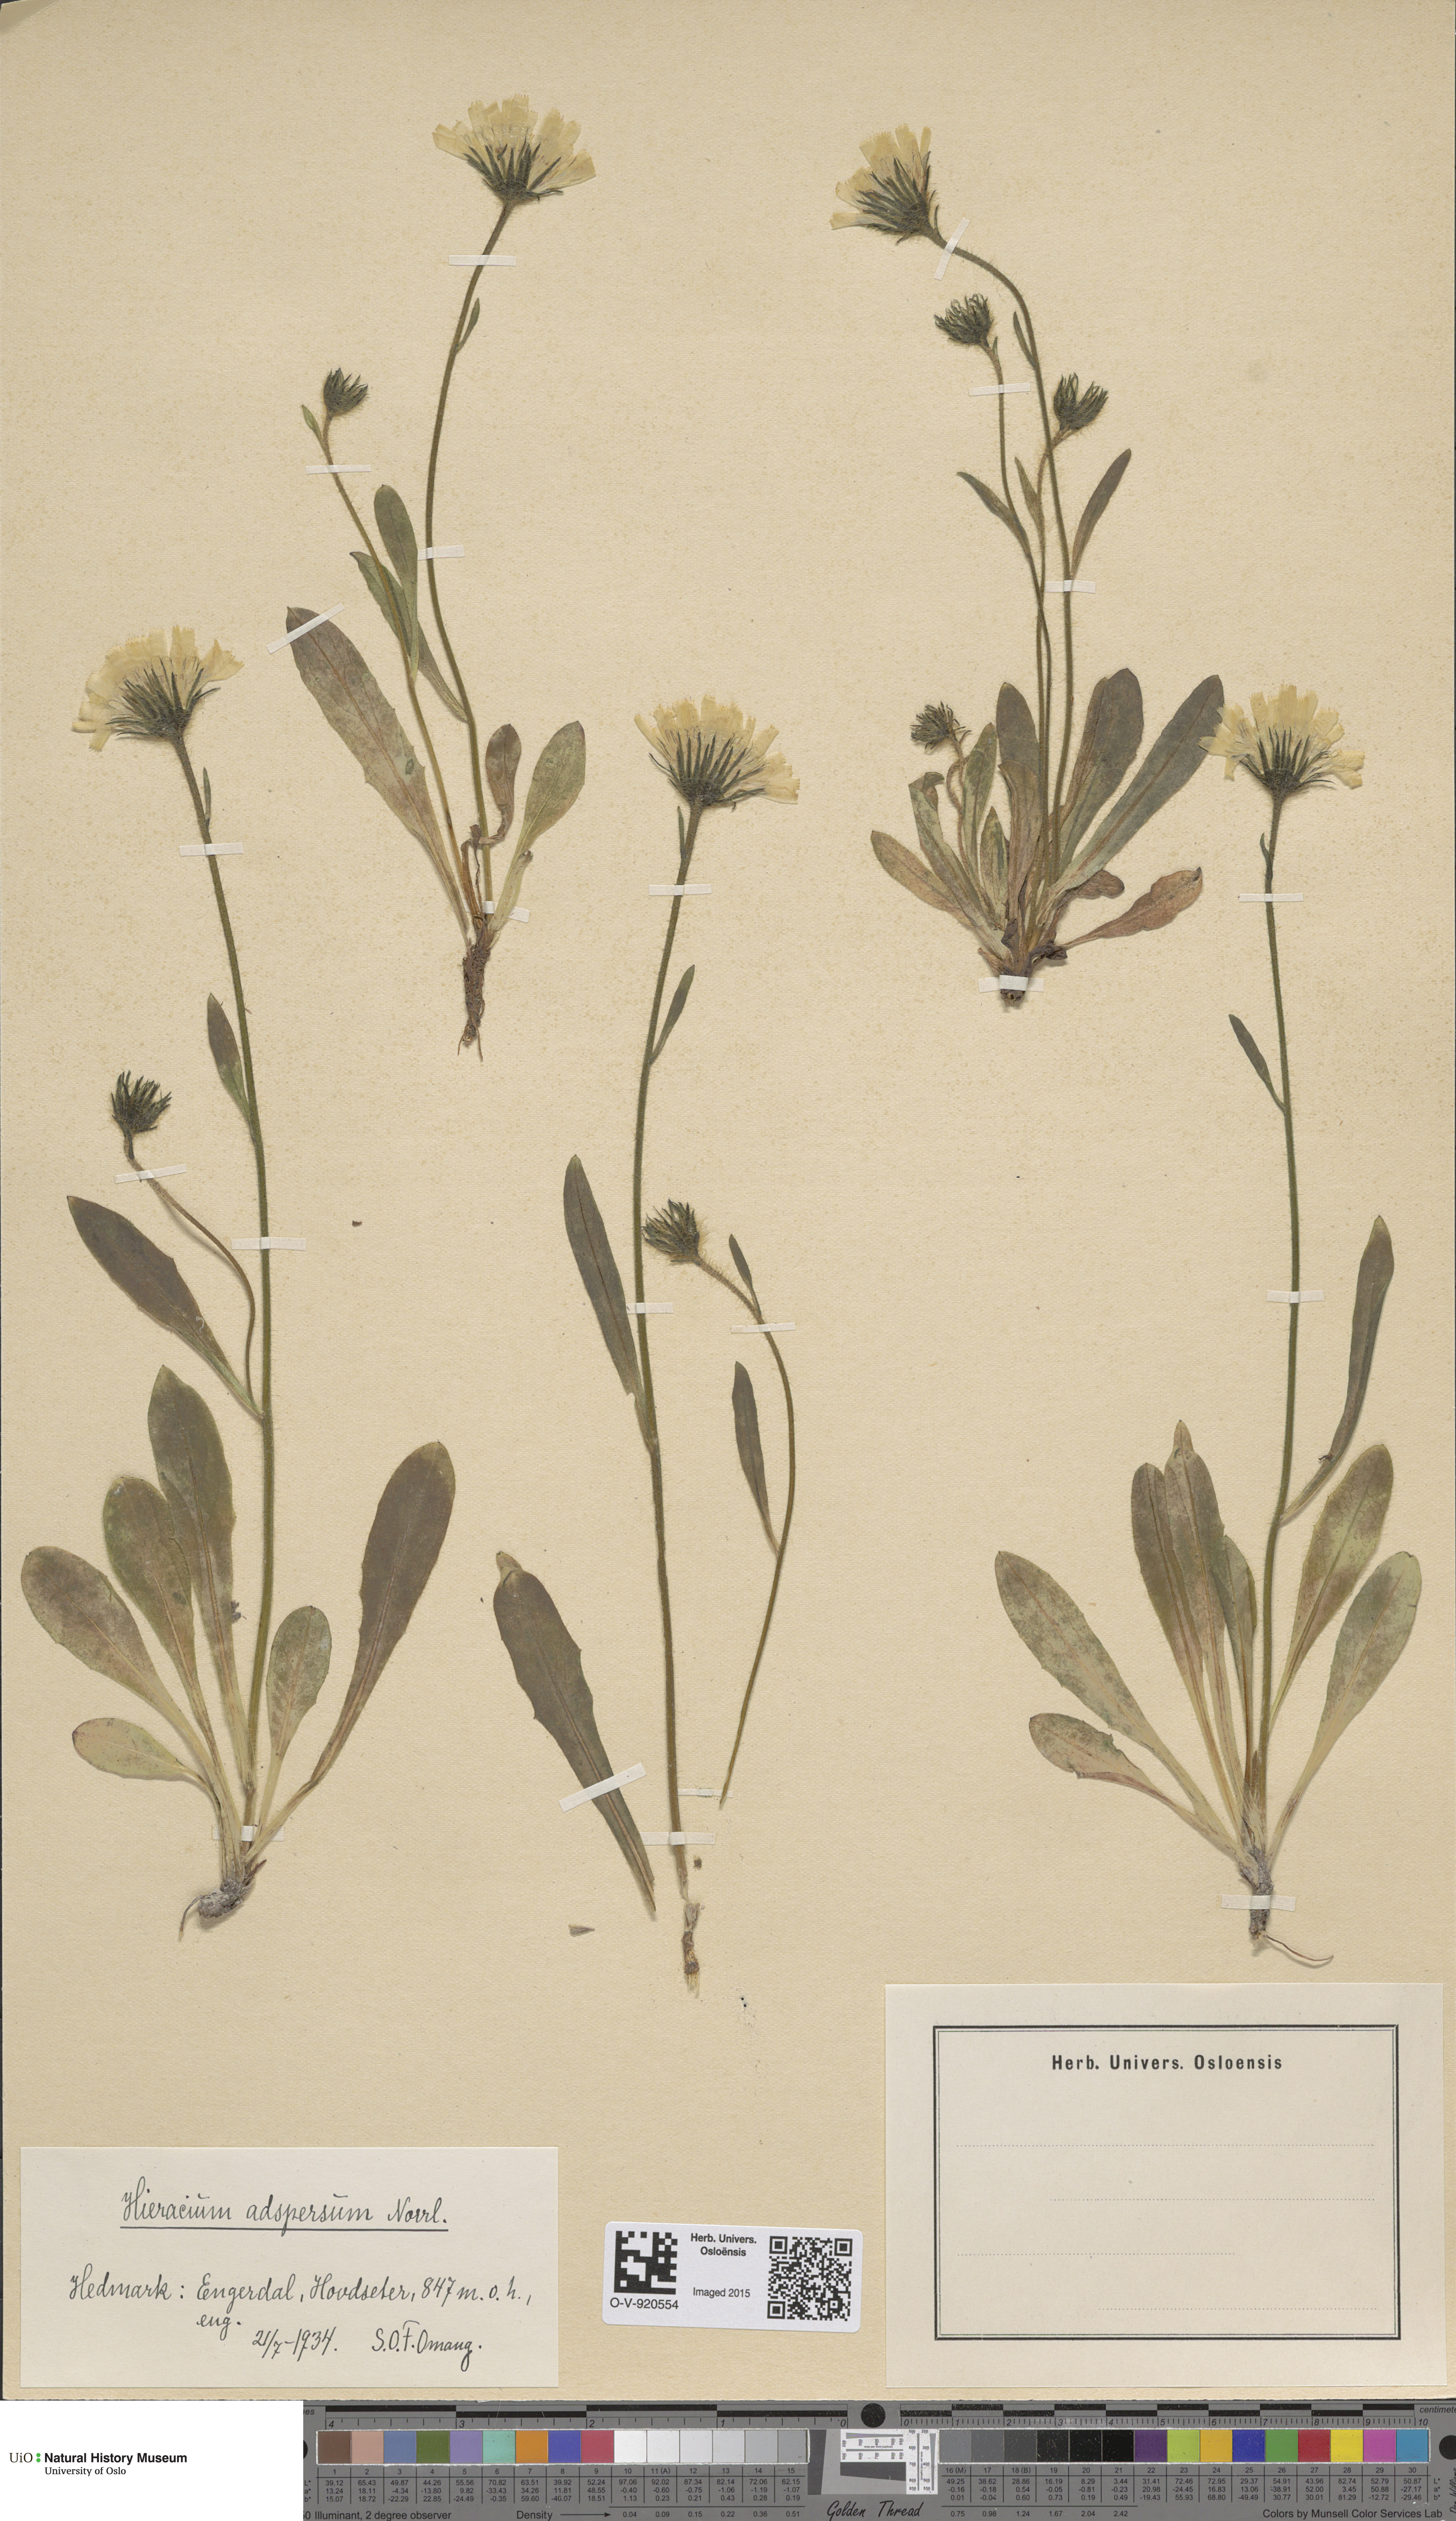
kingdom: Plantae
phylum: Tracheophyta
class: Magnoliopsida
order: Asterales
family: Asteraceae
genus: Hieracium
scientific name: Hieracium alpinum
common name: Alpine hawkweed
